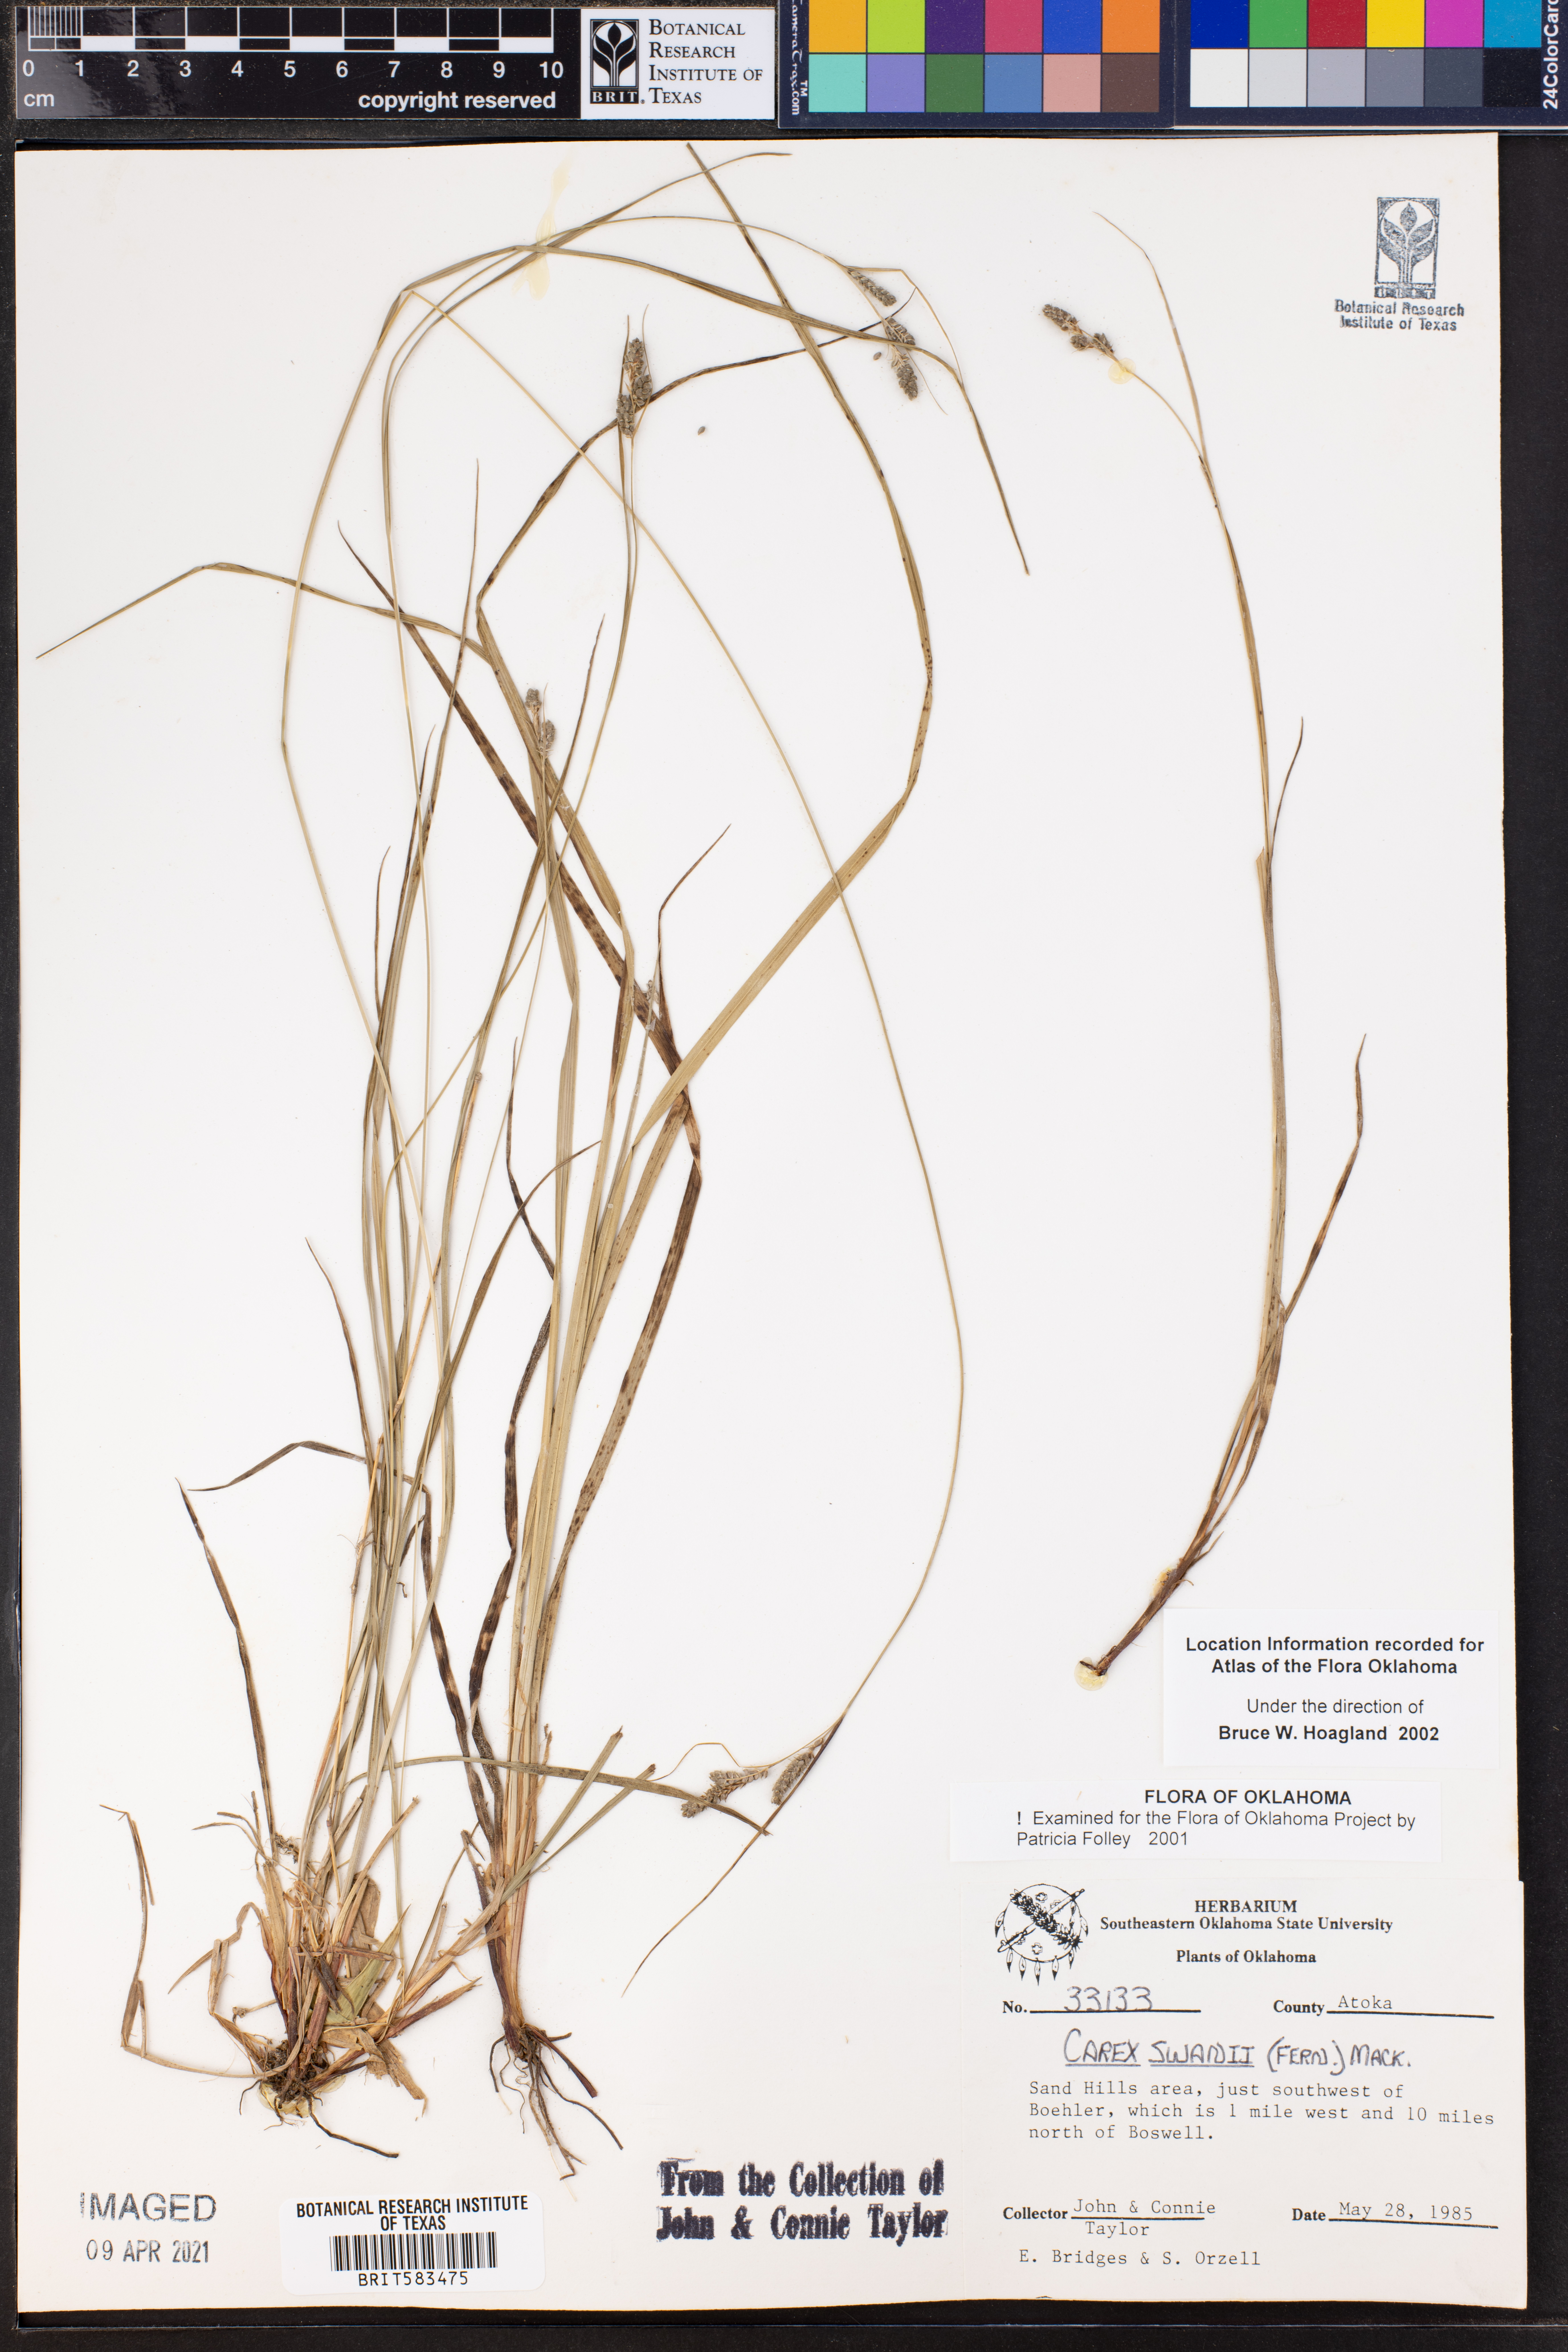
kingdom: Plantae
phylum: Tracheophyta
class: Liliopsida
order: Poales
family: Cyperaceae
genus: Carex
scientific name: Carex swanii
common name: Downy green sedge
